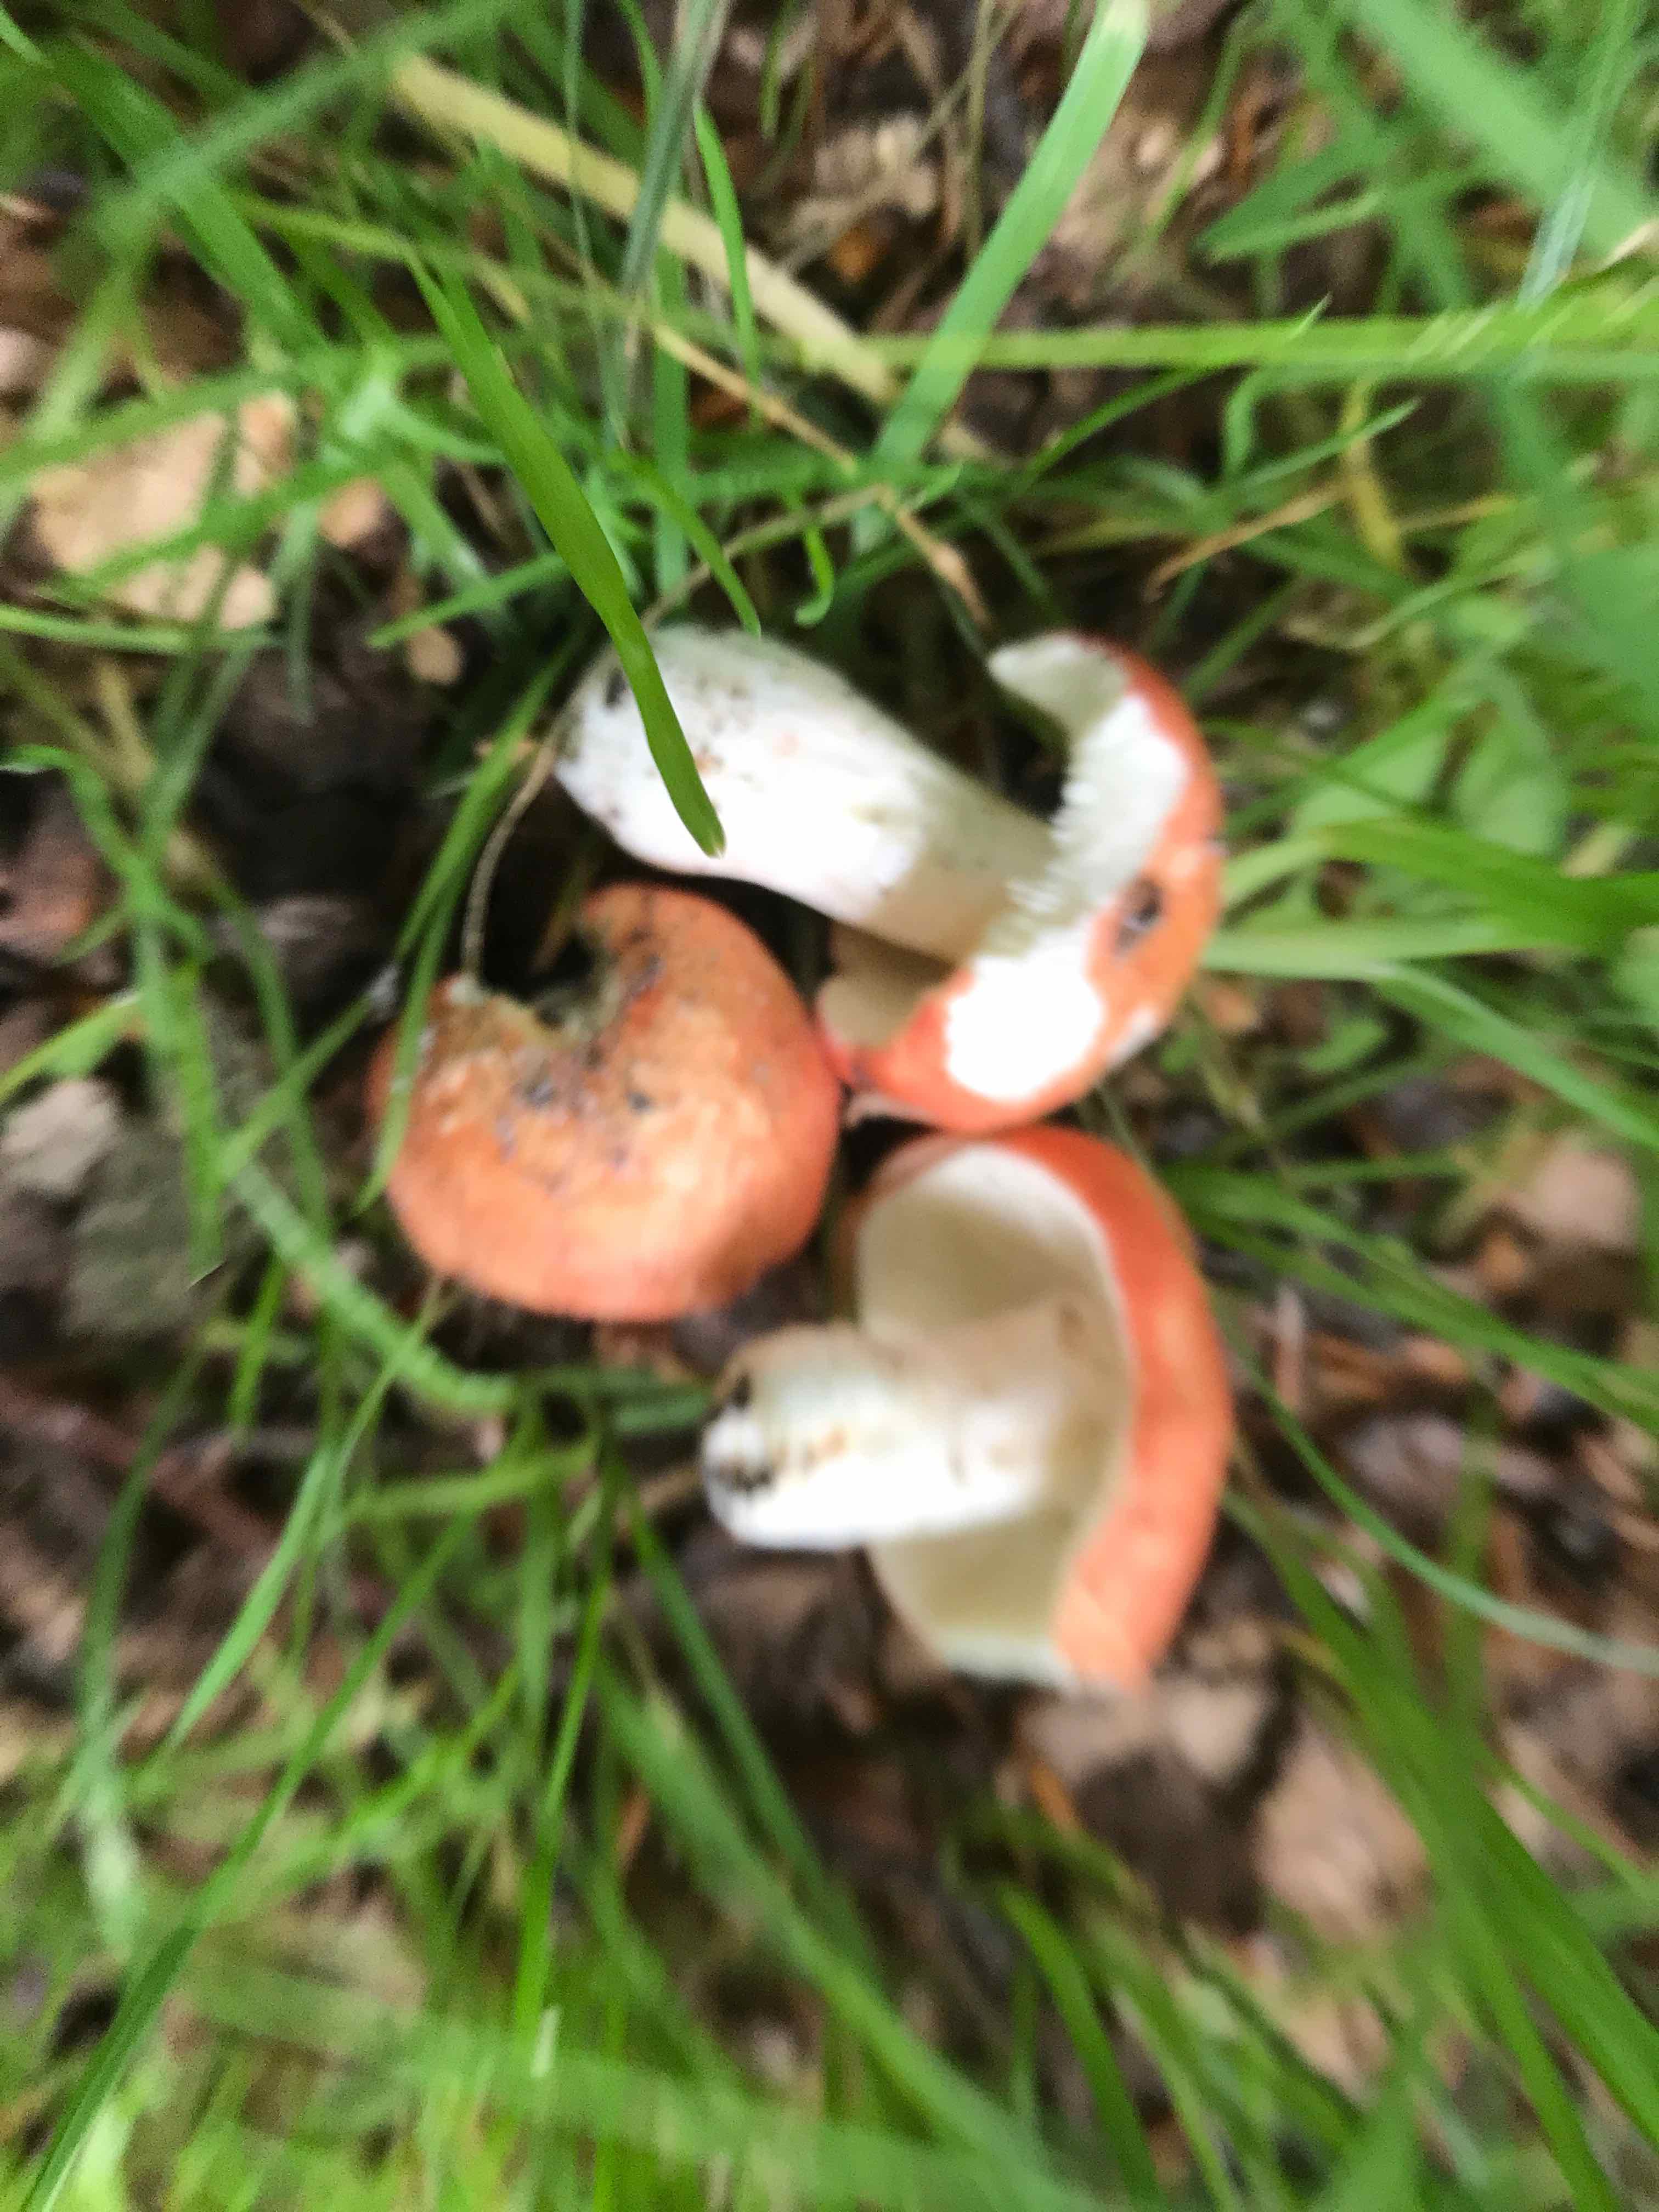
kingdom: Fungi
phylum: Basidiomycota
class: Agaricomycetes
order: Russulales
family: Russulaceae
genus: Russula
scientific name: Russula rosea
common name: fastkødet skørhat
